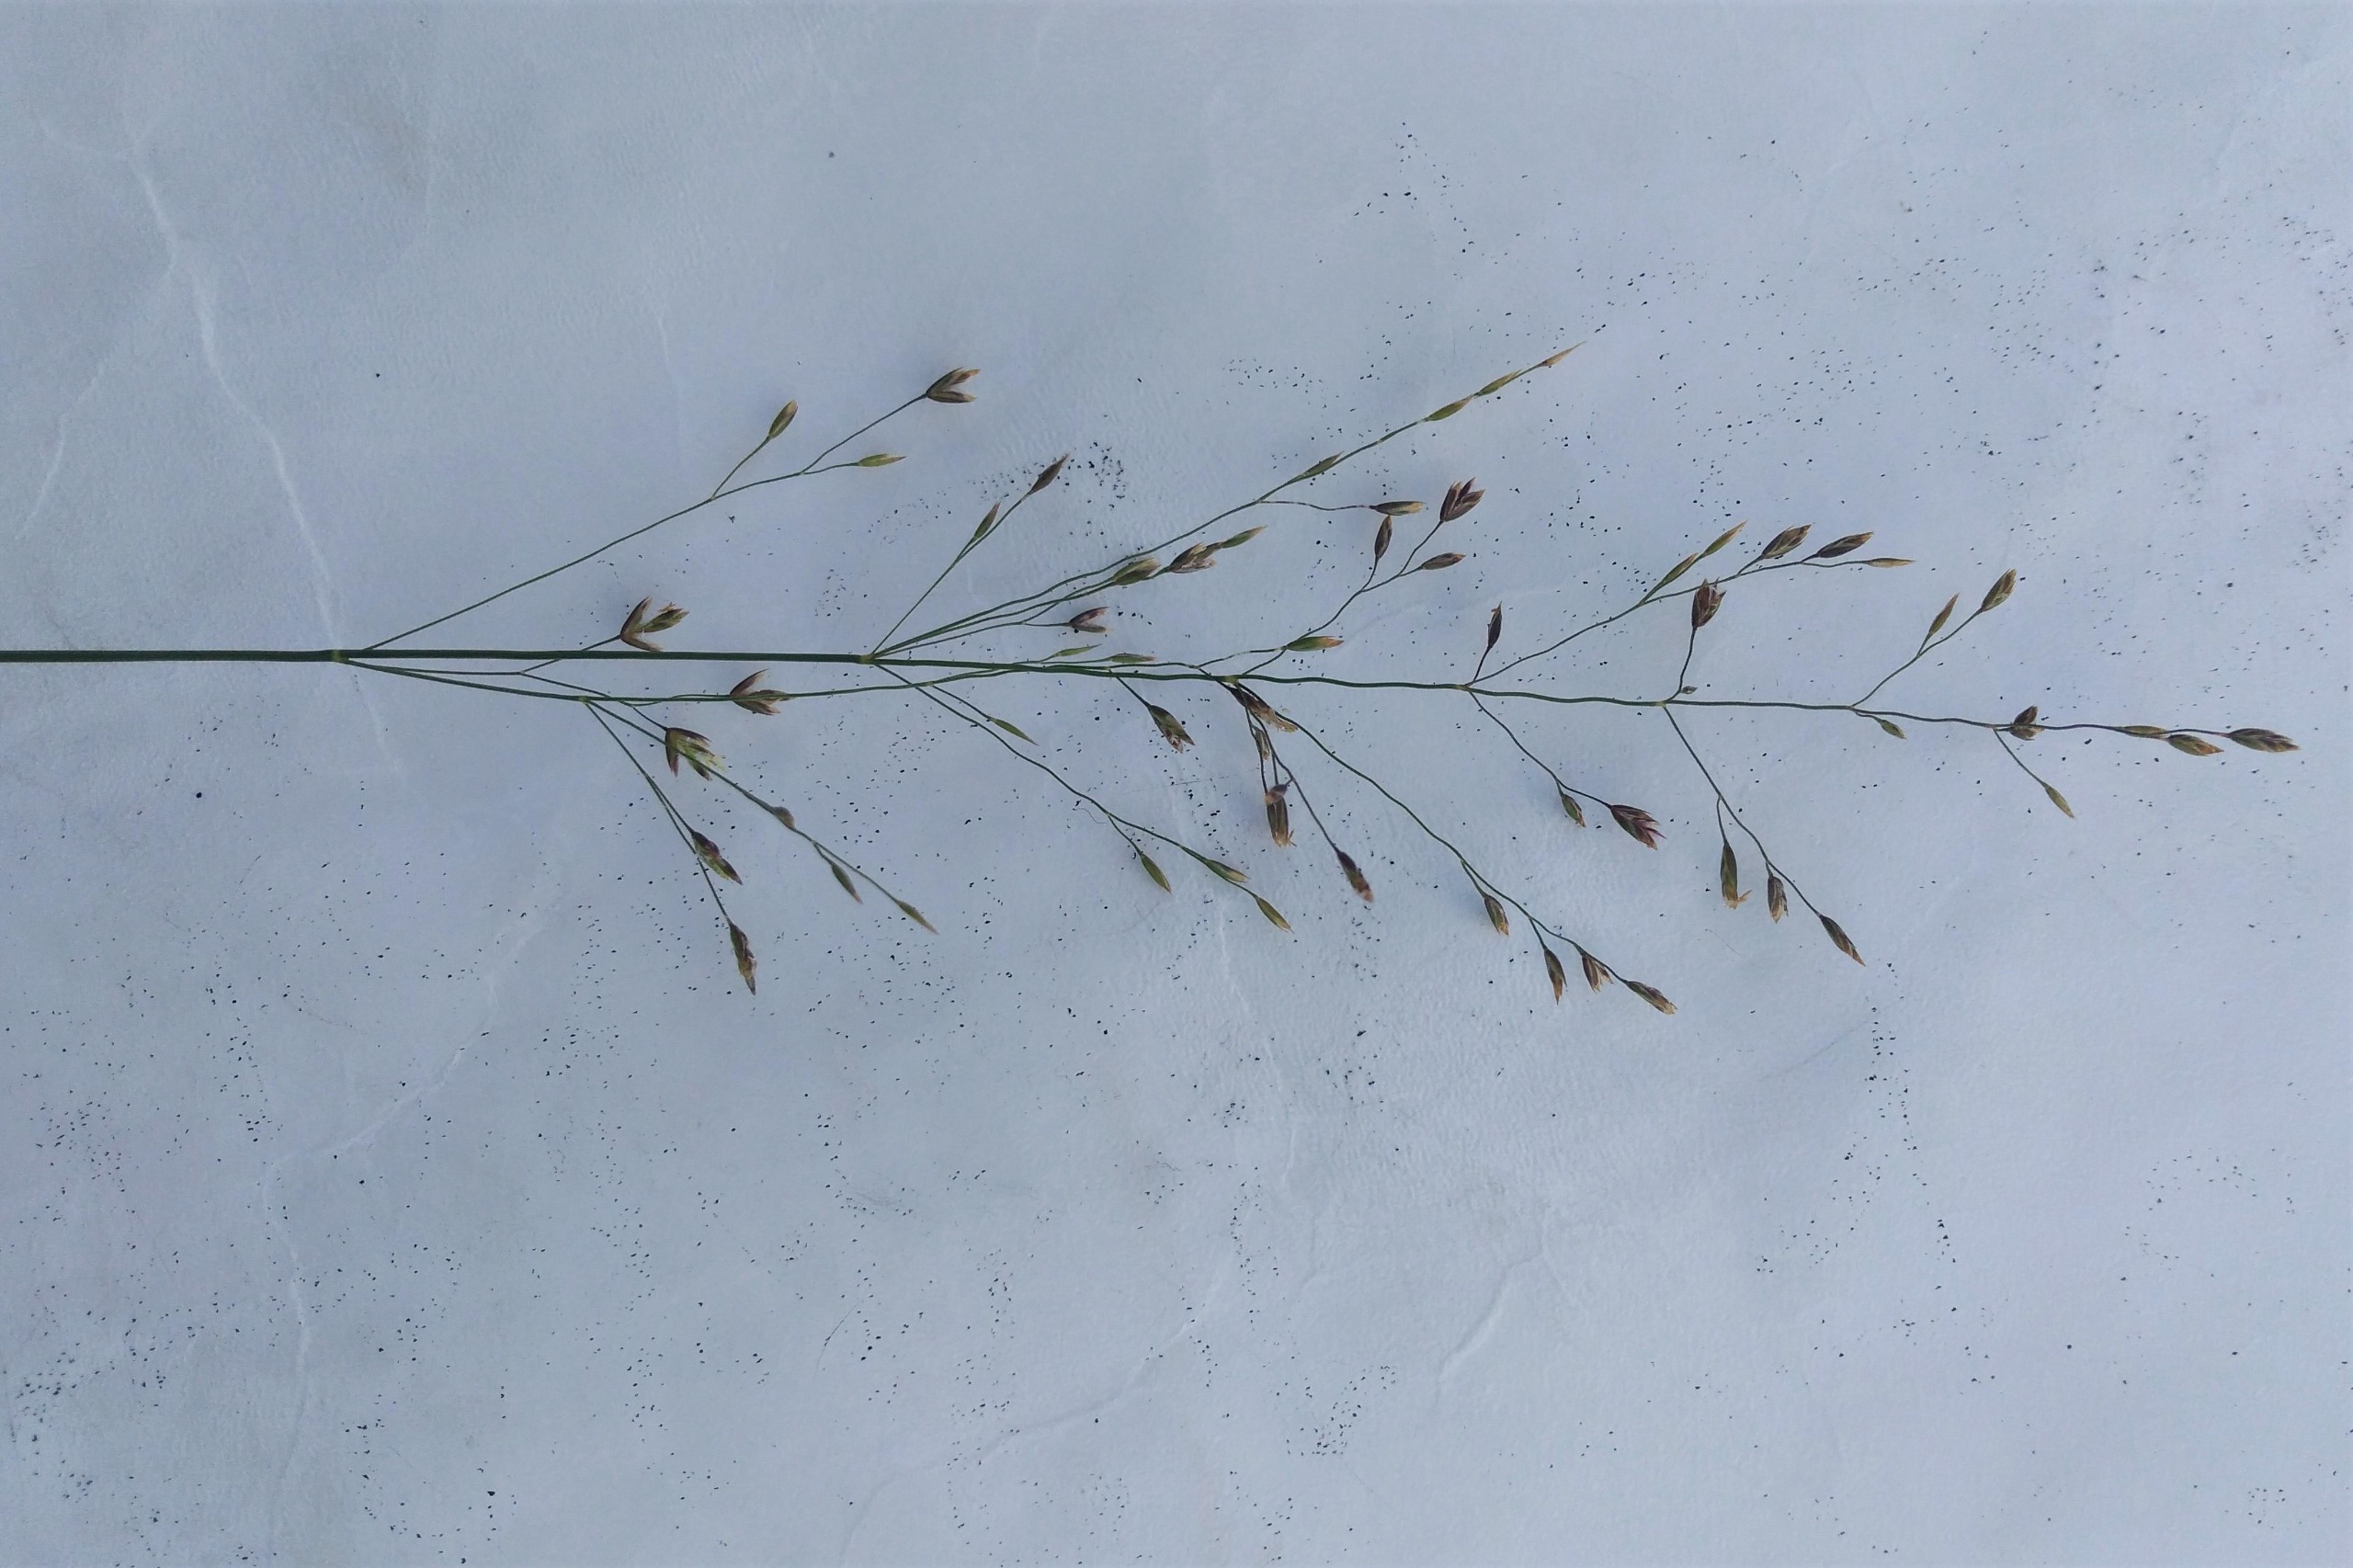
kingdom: Plantae
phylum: Tracheophyta
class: Liliopsida
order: Poales
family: Poaceae
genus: Poa
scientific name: Poa palustris
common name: Stortoppet rapgræs
